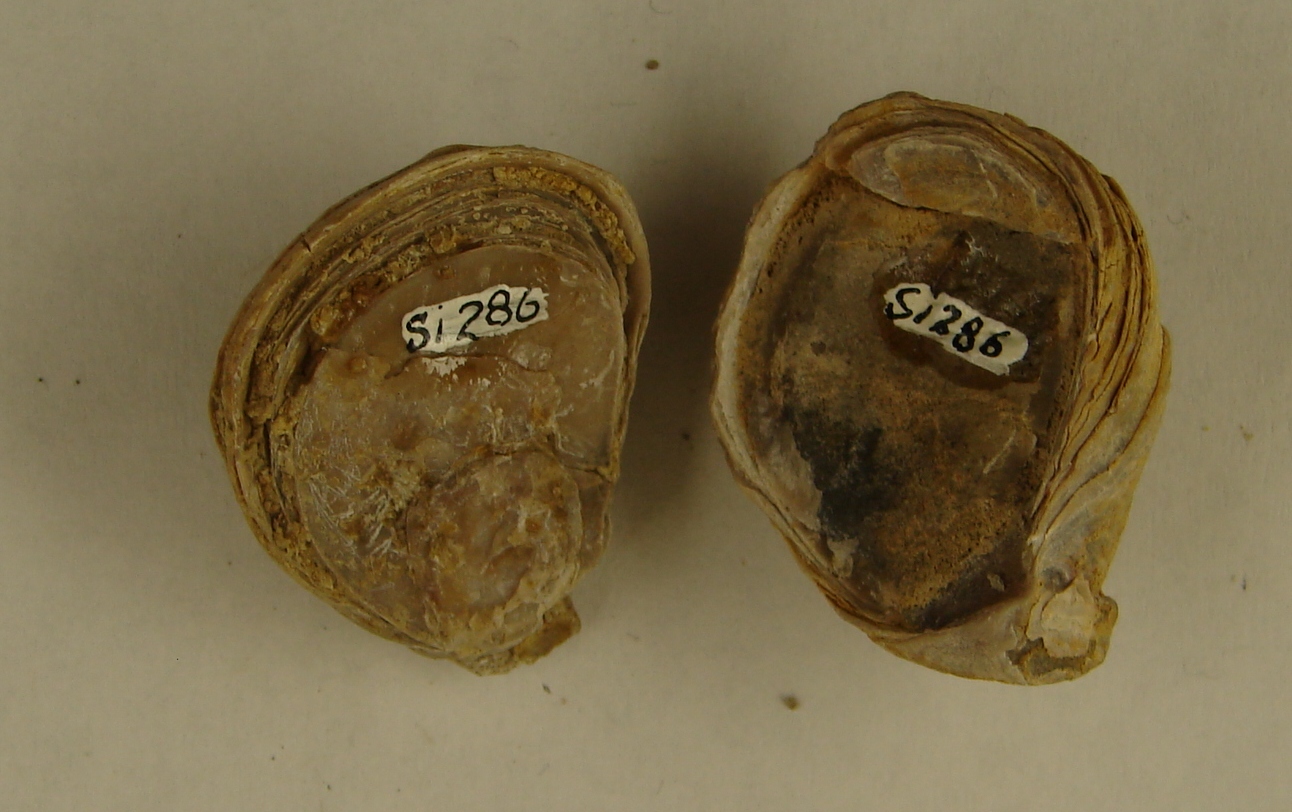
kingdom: Animalia
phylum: Mollusca
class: Bivalvia
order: Ostreida
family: Flemingostreidae
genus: Liostrea
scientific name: Liostrea hisingeri
